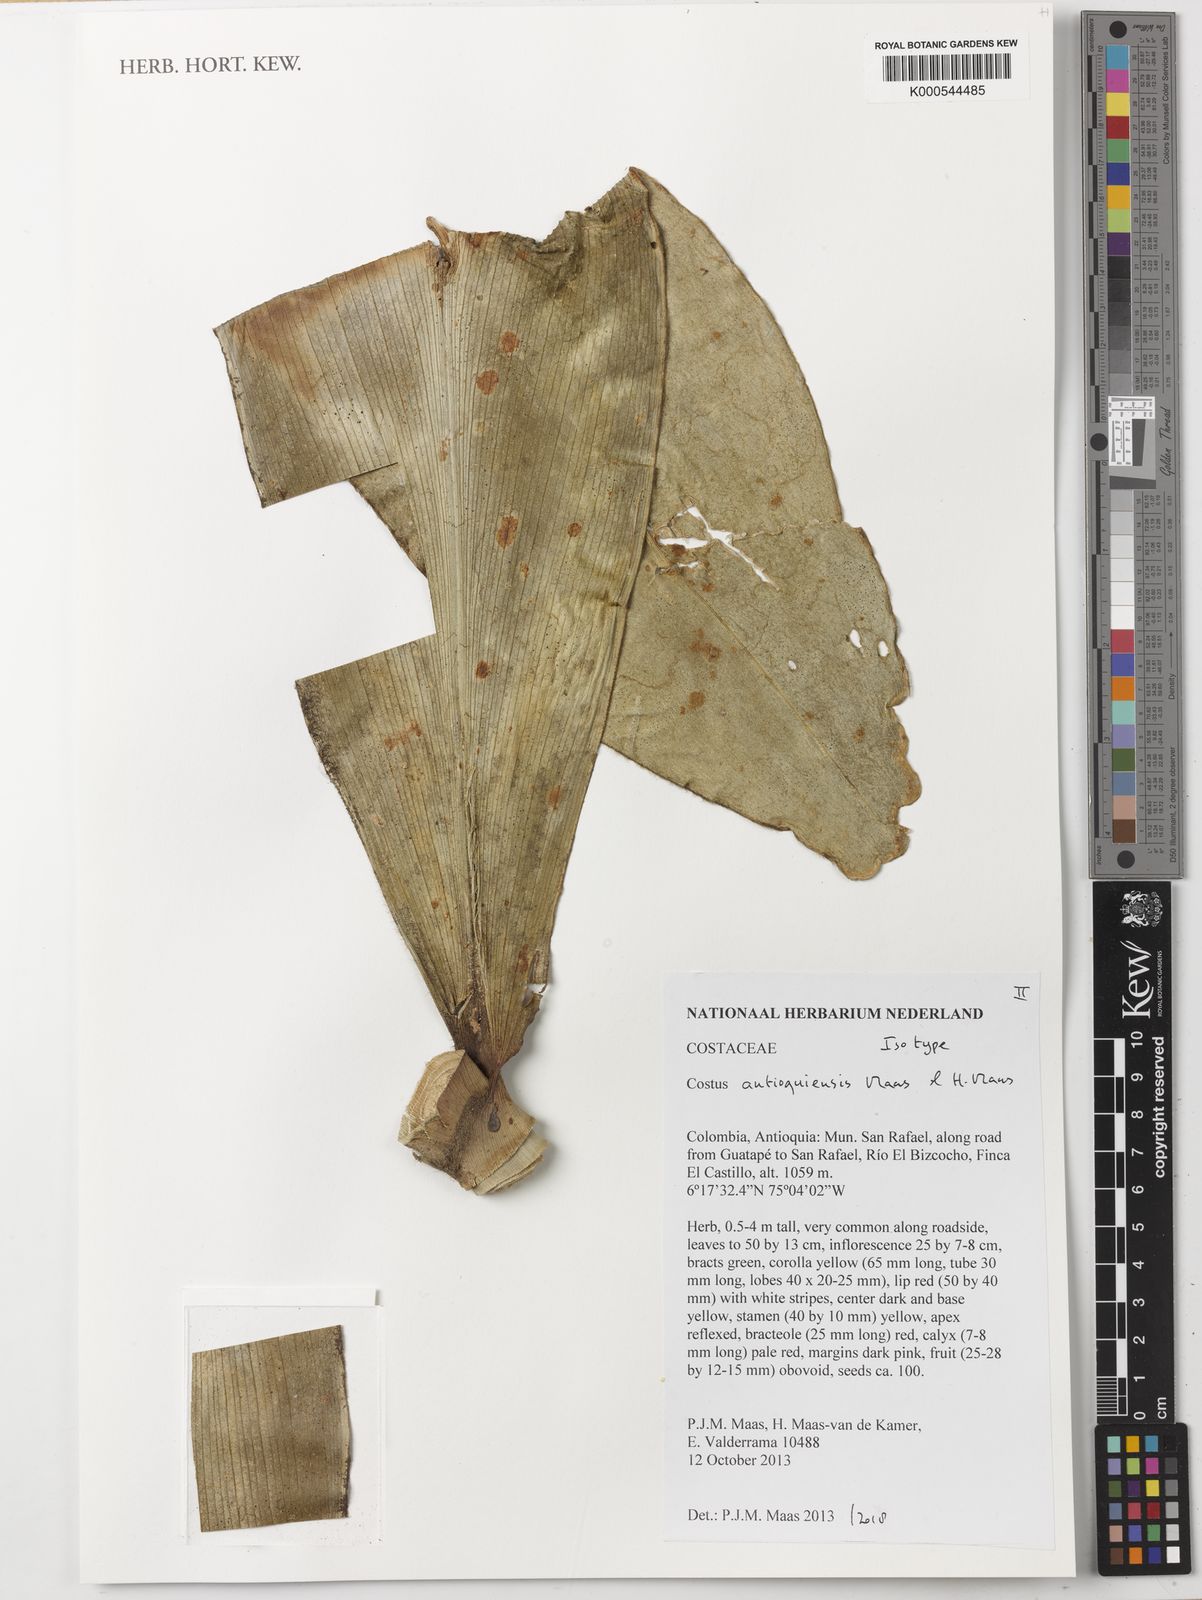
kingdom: Plantae
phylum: Tracheophyta
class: Liliopsida
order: Zingiberales
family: Costaceae
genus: Costus
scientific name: Costus
